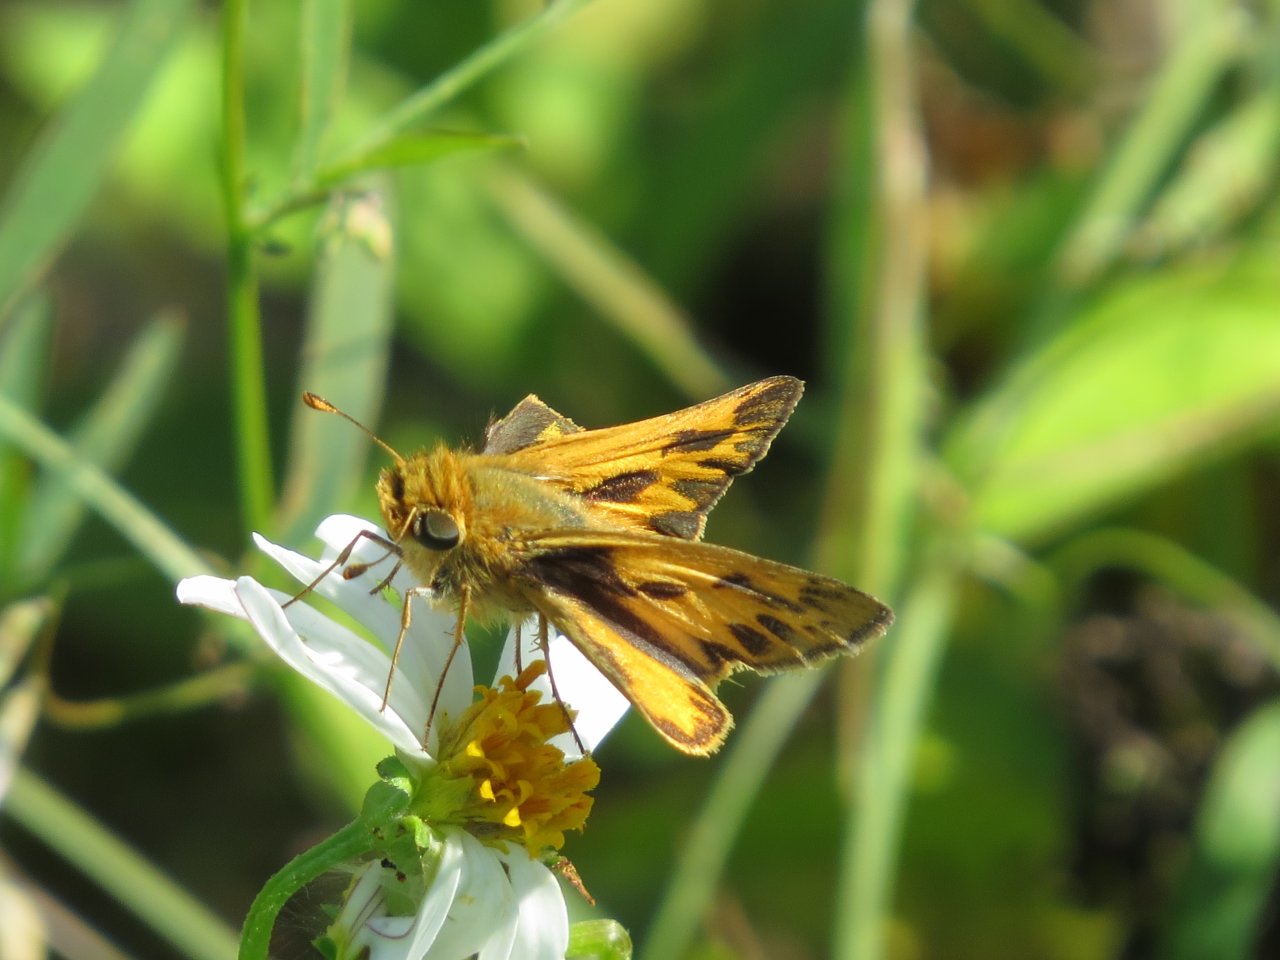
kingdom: Animalia
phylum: Arthropoda
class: Insecta
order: Lepidoptera
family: Hesperiidae
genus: Hylephila
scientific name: Hylephila phyleus
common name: Fiery Skipper
